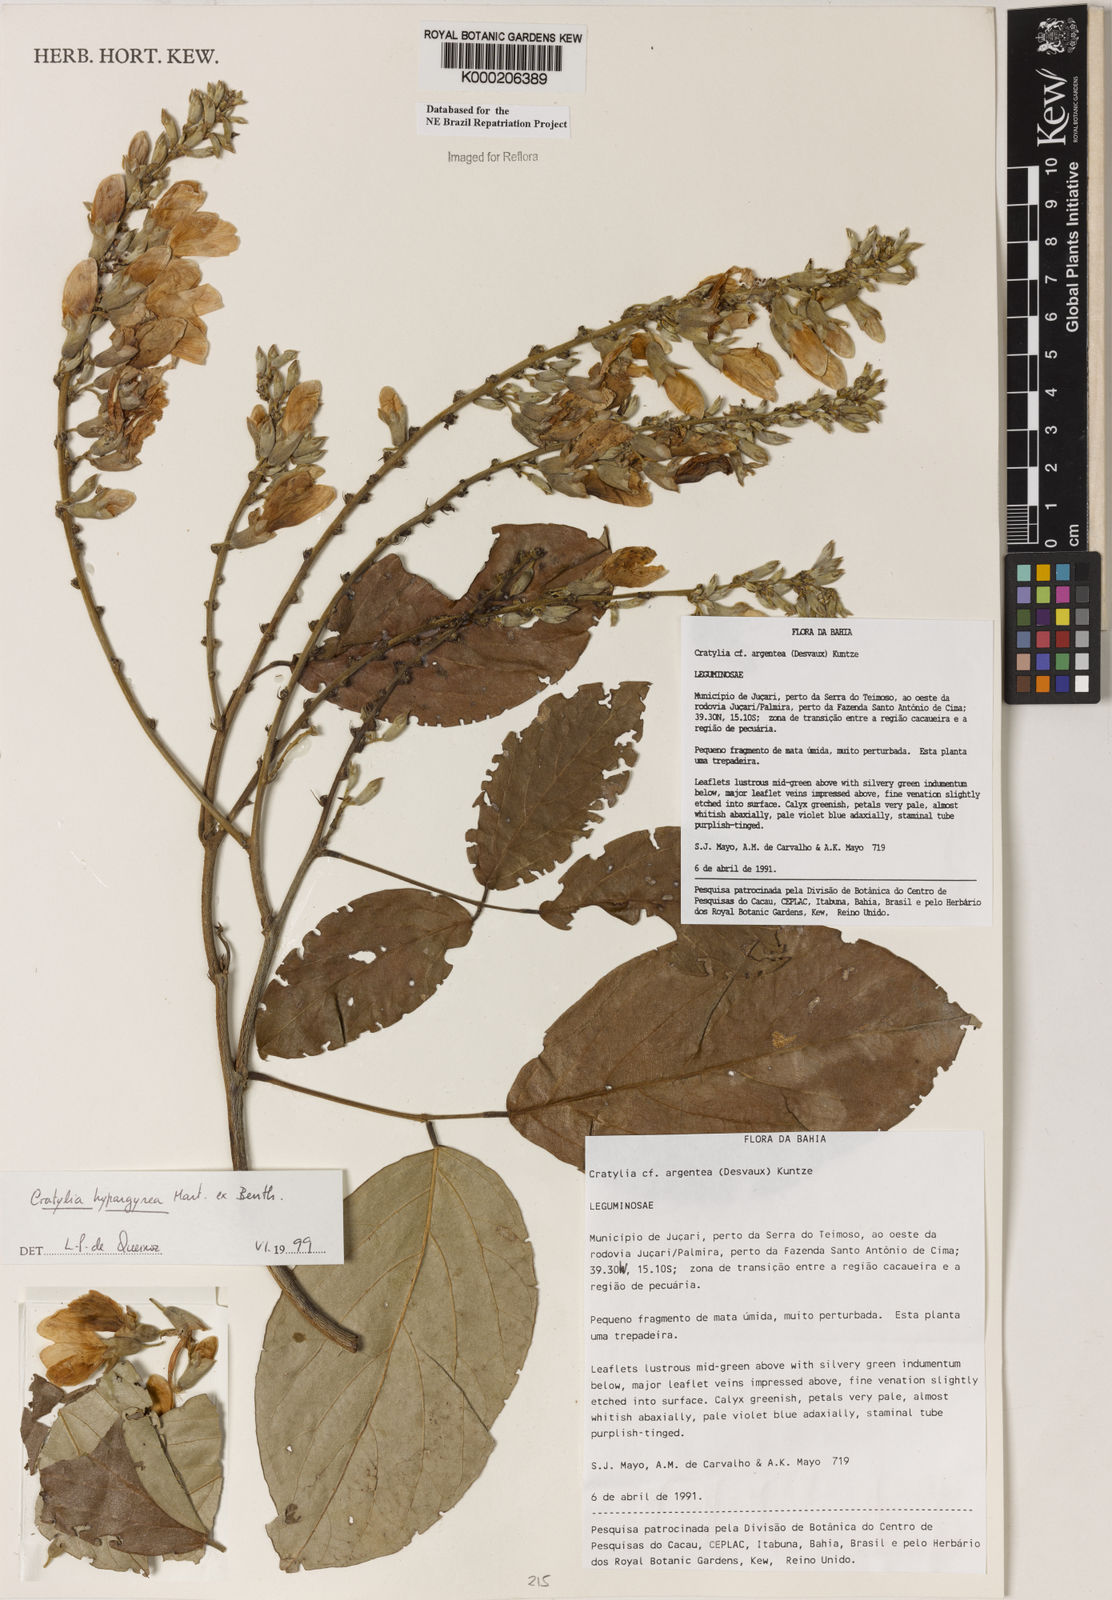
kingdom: Plantae
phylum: Tracheophyta
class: Magnoliopsida
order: Fabales
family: Fabaceae
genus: Cratylia
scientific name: Cratylia
